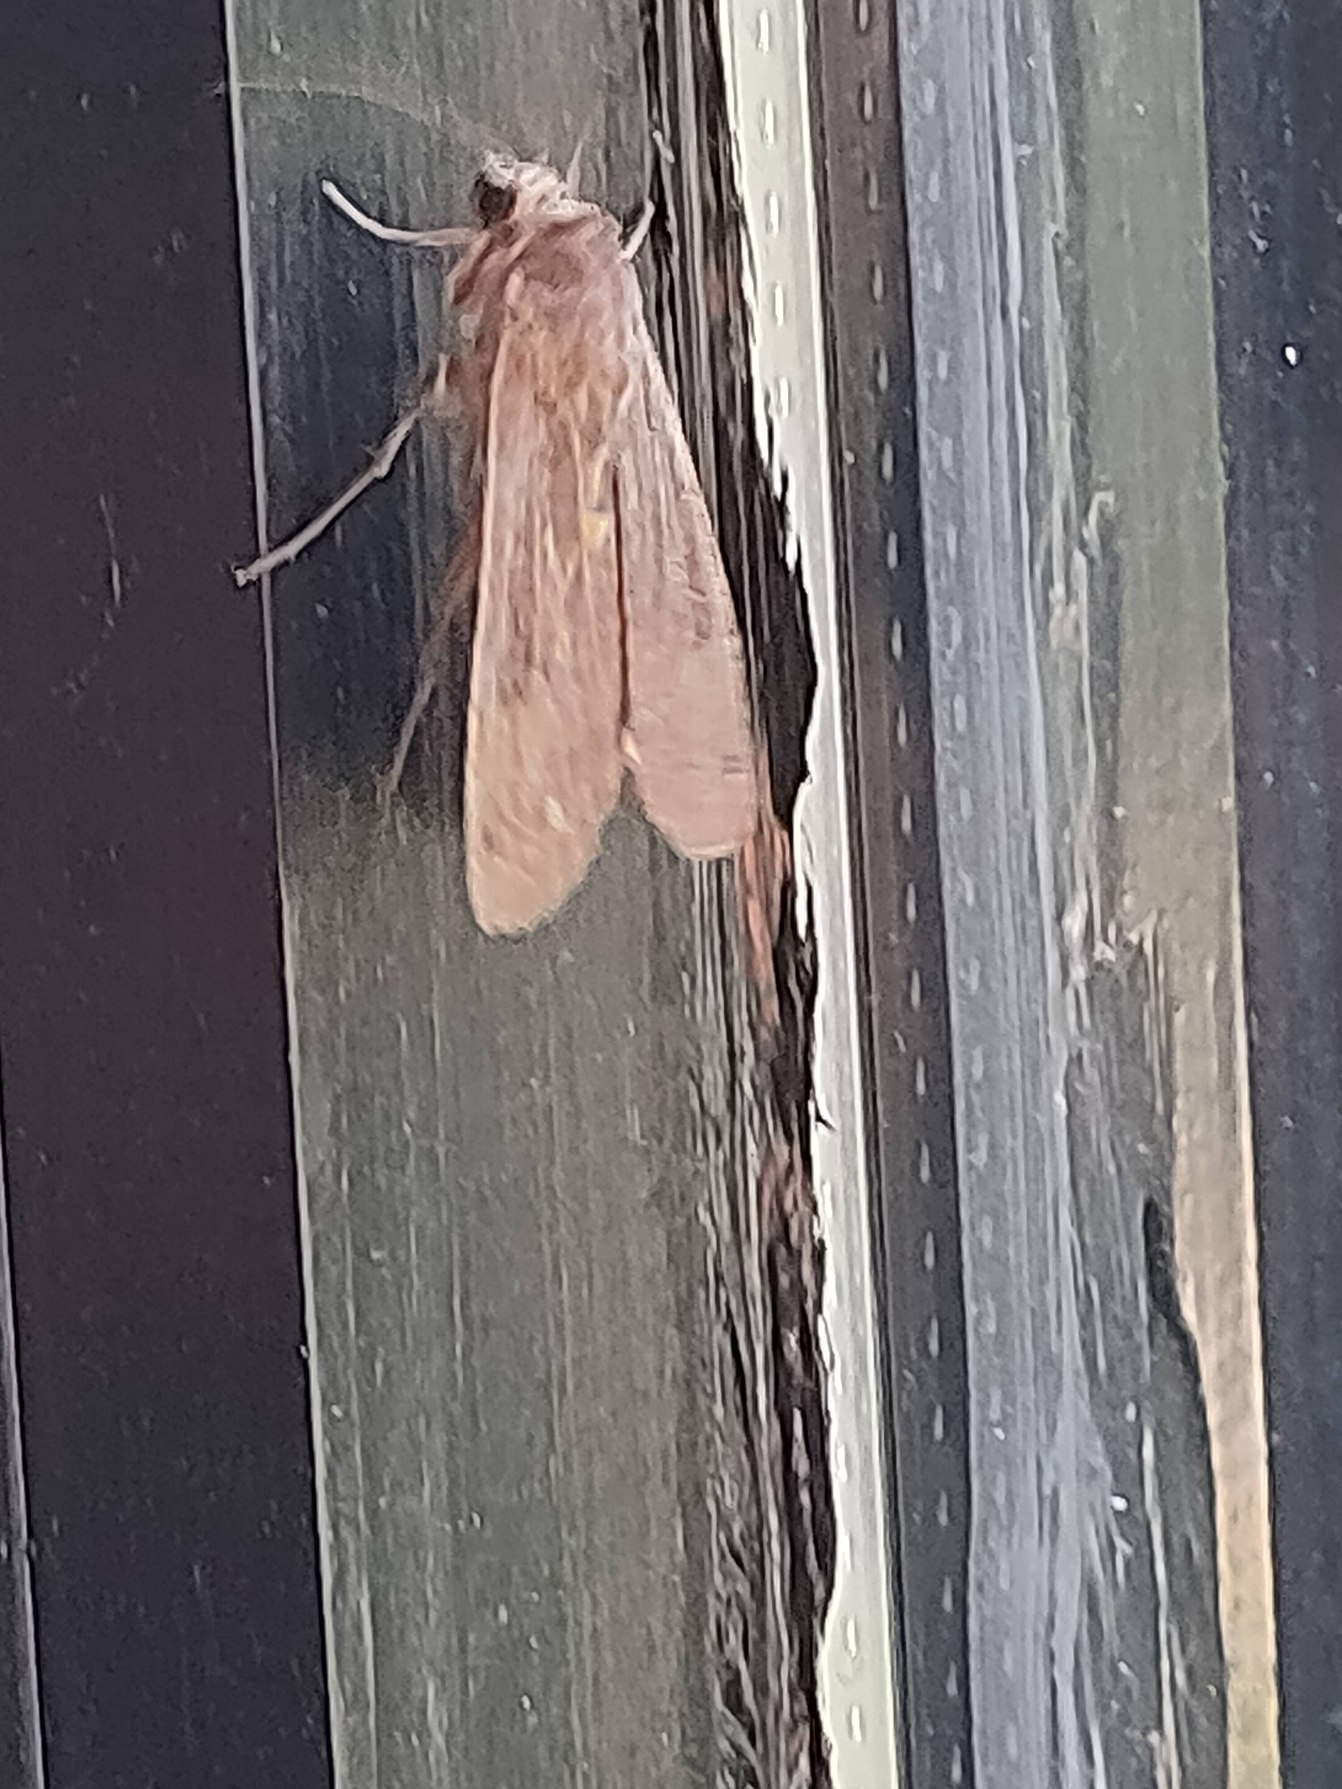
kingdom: Animalia
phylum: Arthropoda
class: Insecta
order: Lepidoptera
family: Noctuidae
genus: Noctua
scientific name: Noctua pronuba
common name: Stor smutugle
